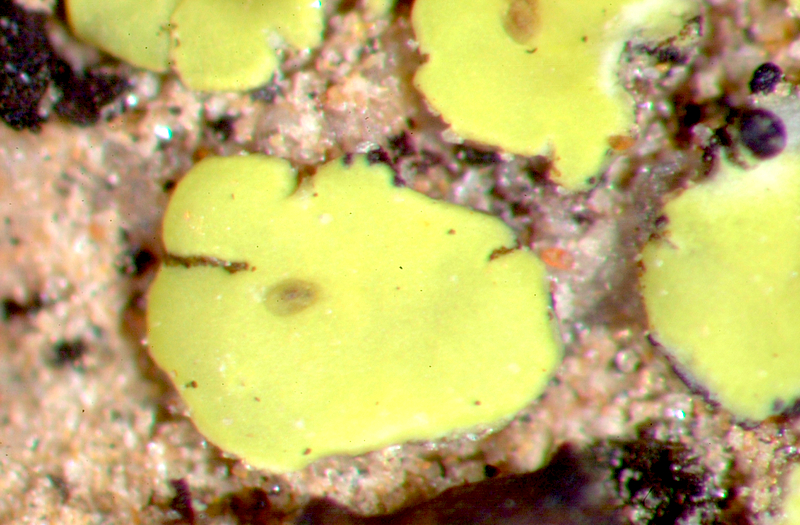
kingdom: Fungi
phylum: Ascomycota
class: Lecanoromycetes
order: Acarosporales
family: Acarosporaceae
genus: Acarospora
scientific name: Acarospora
